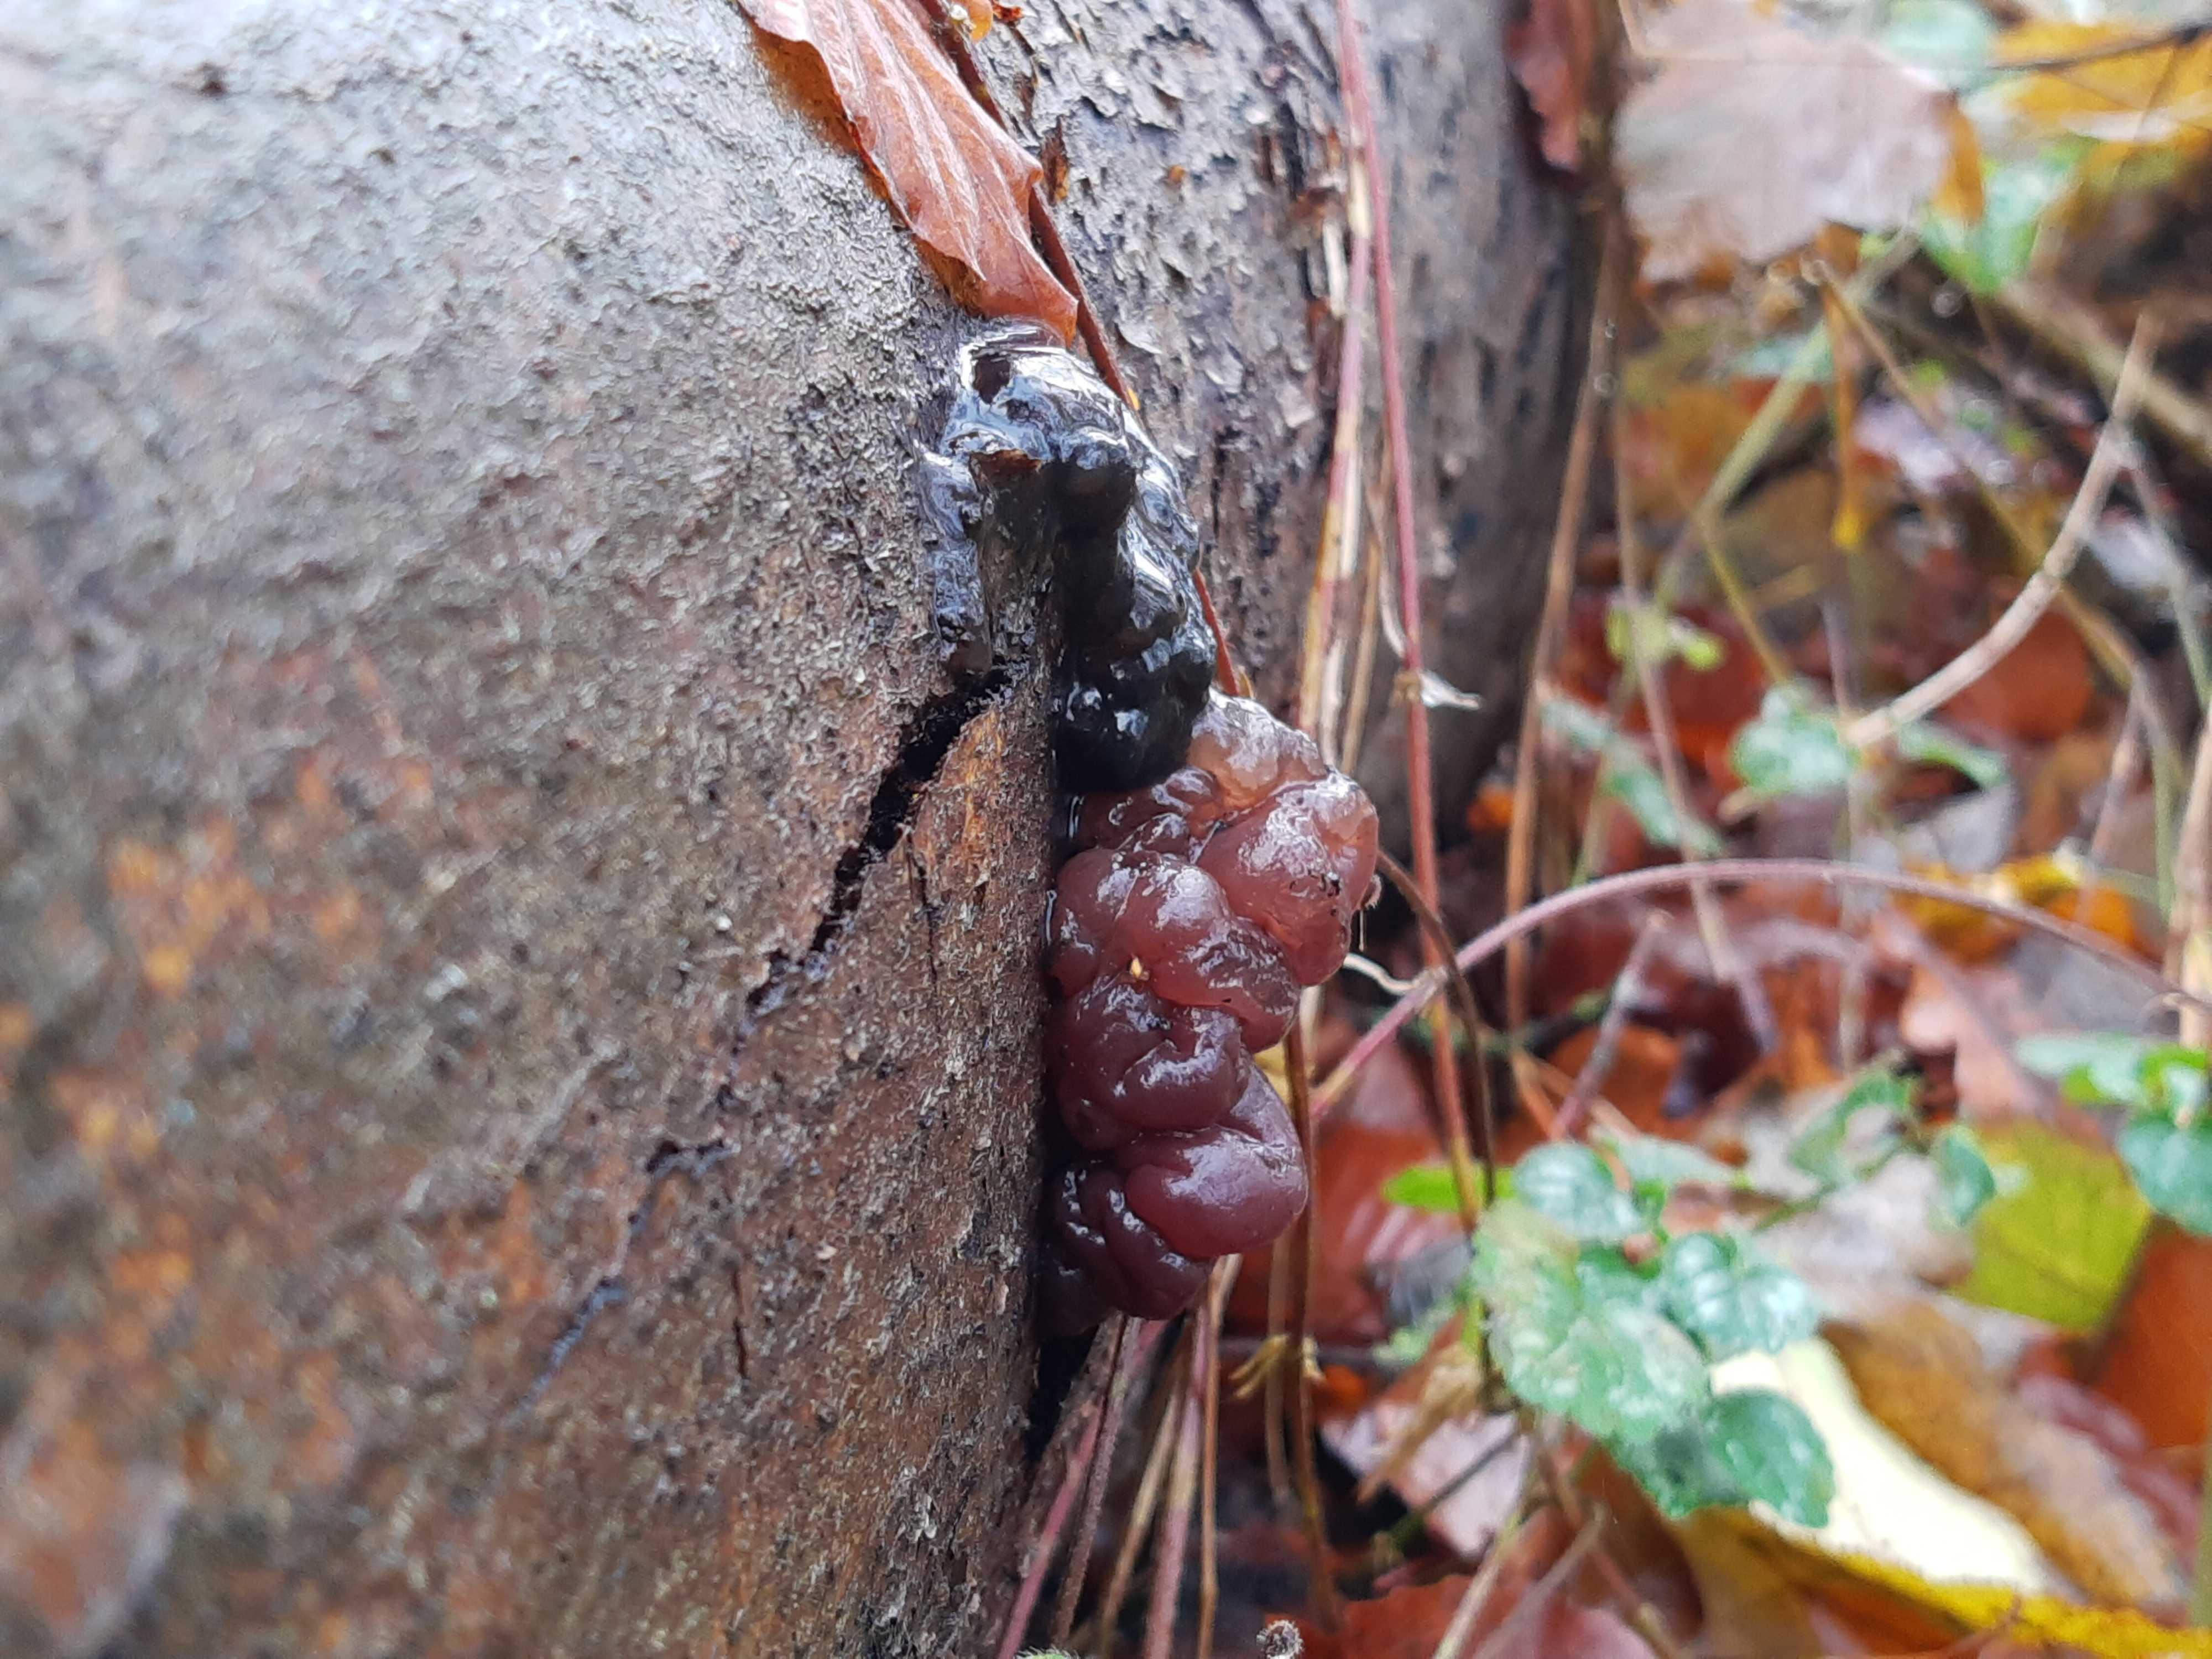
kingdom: Fungi
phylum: Ascomycota
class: Leotiomycetes
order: Helotiales
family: Gelatinodiscaceae
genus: Ascotremella
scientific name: Ascotremella faginea
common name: hjerne-bævreskive
